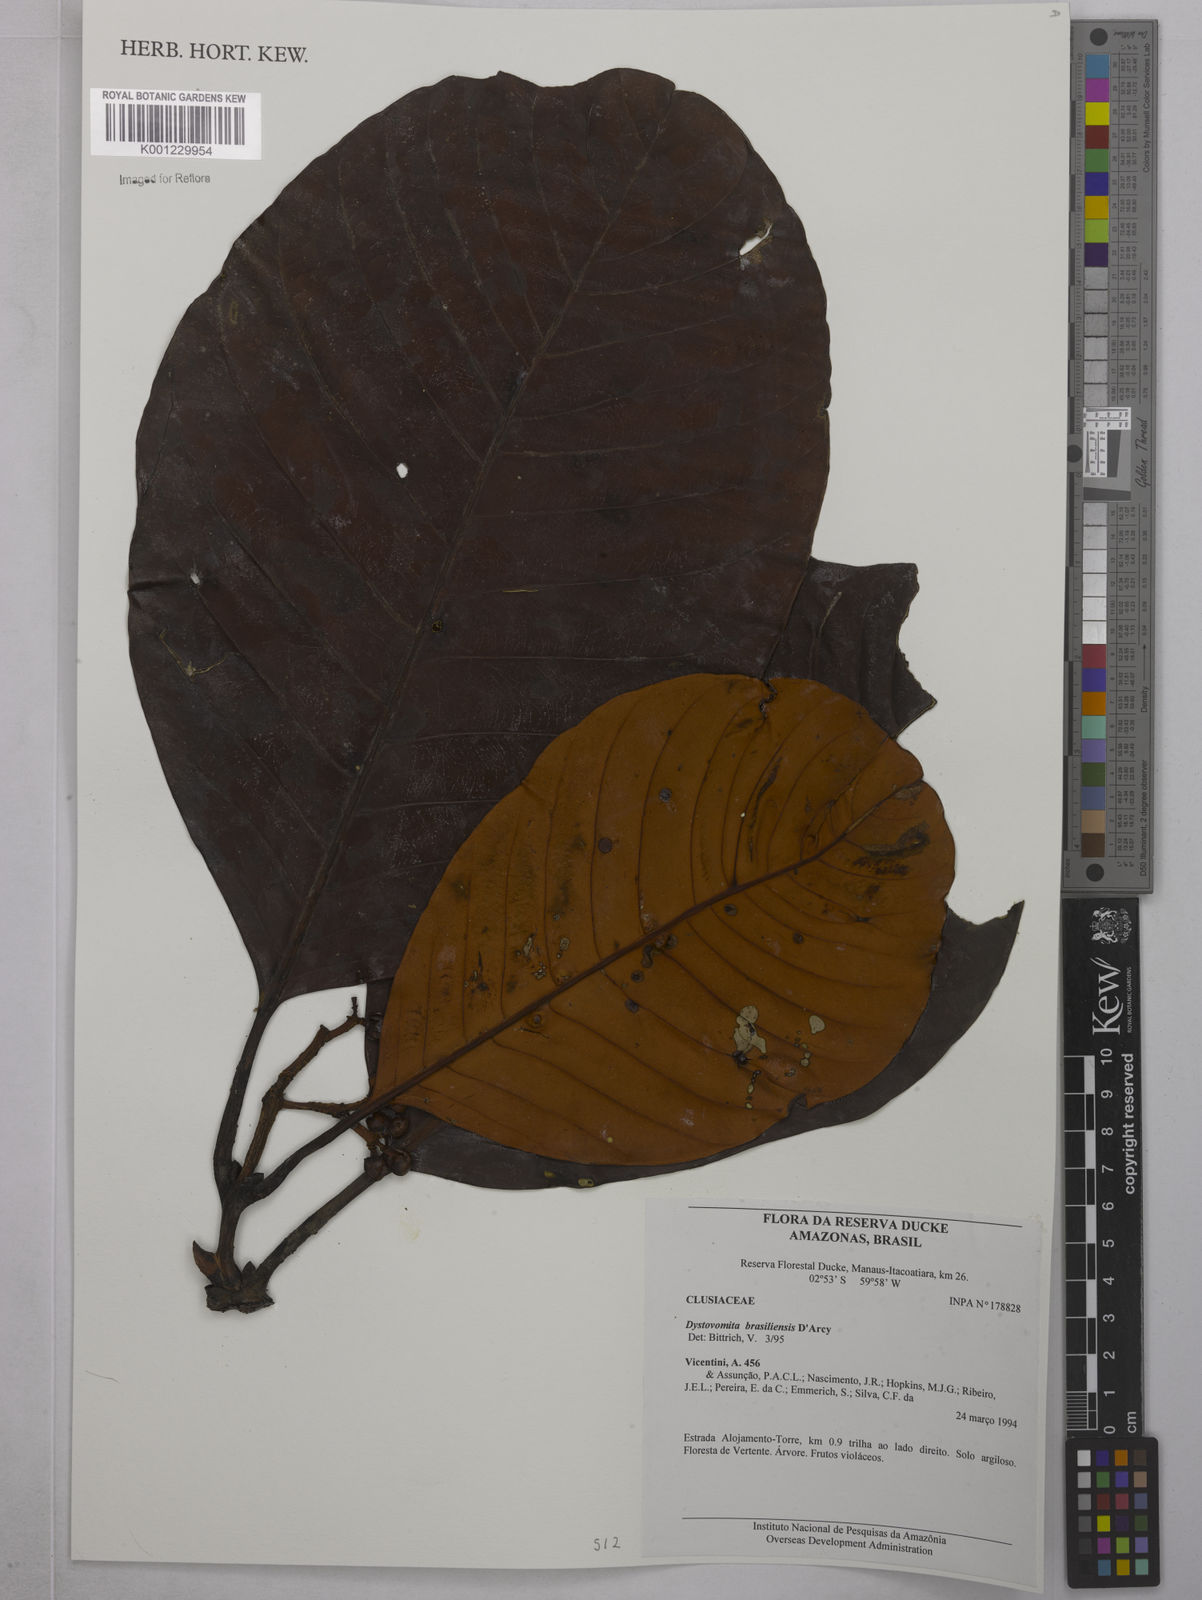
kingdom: Plantae
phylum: Tracheophyta
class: Magnoliopsida
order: Malpighiales
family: Clusiaceae
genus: Tovomita
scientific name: Tovomita hopkinsii
